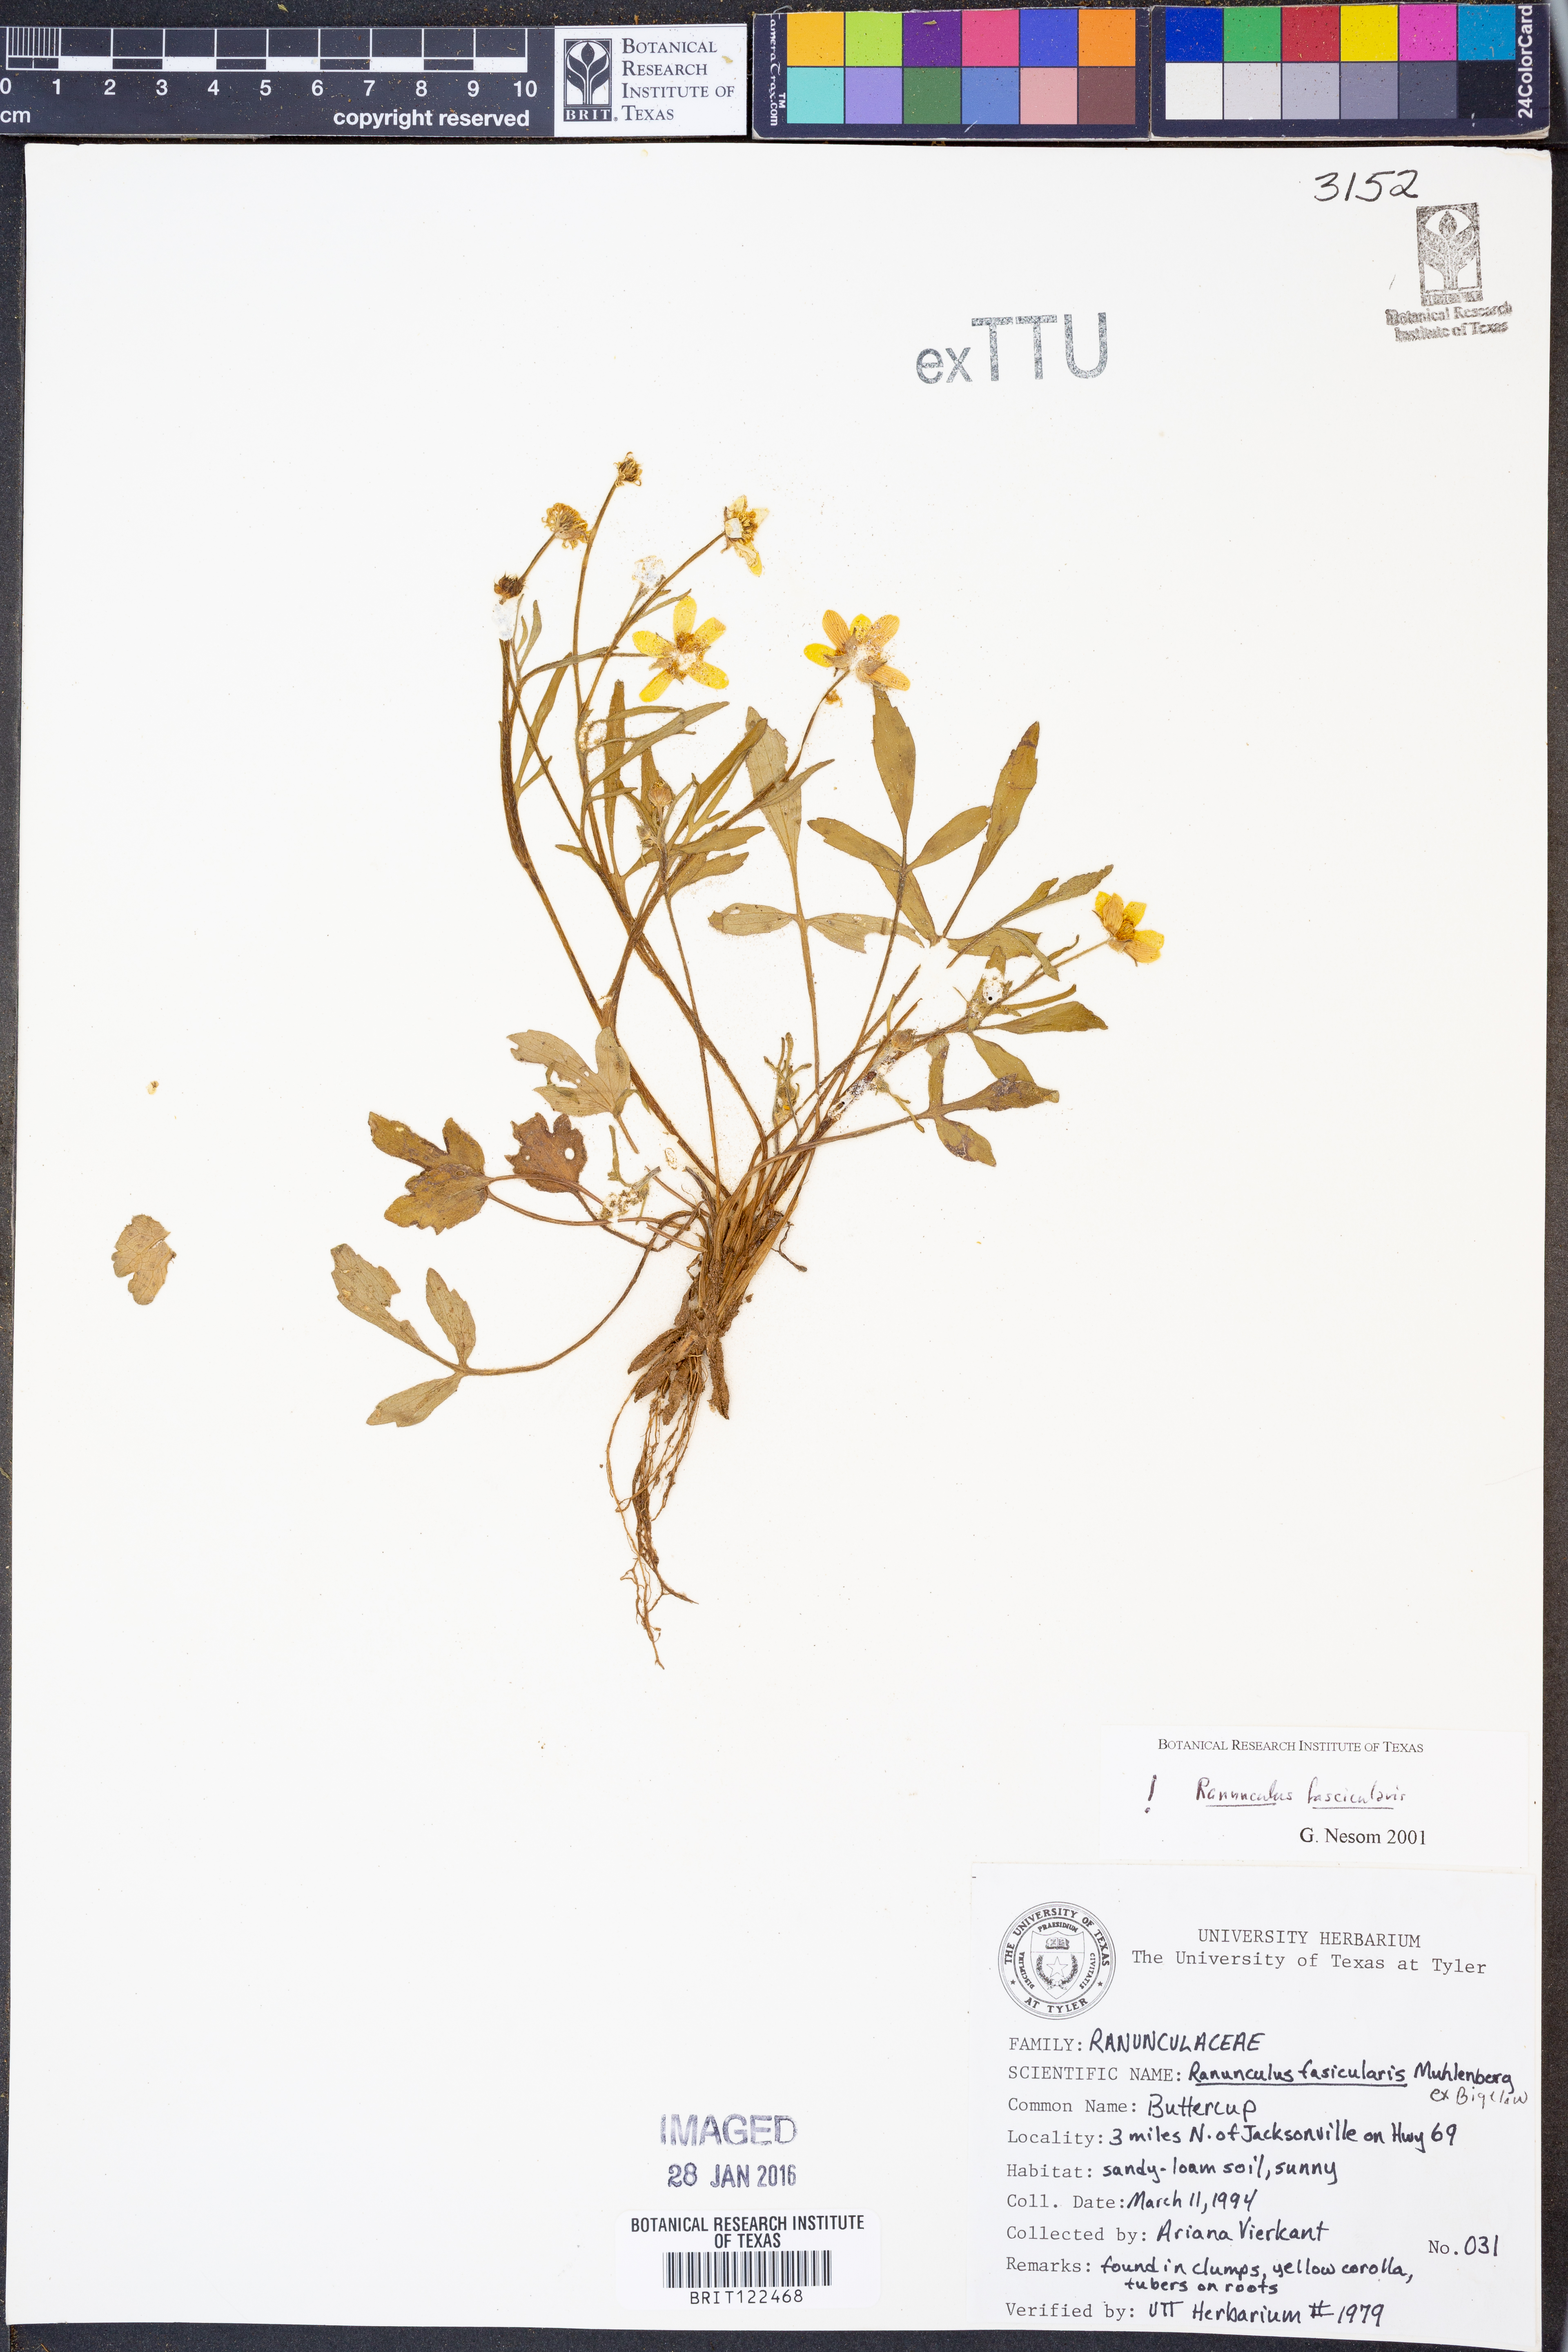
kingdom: Plantae
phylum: Tracheophyta
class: Magnoliopsida
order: Ranunculales
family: Ranunculaceae
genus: Ranunculus
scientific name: Ranunculus fascicularis
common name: Early buttercup
